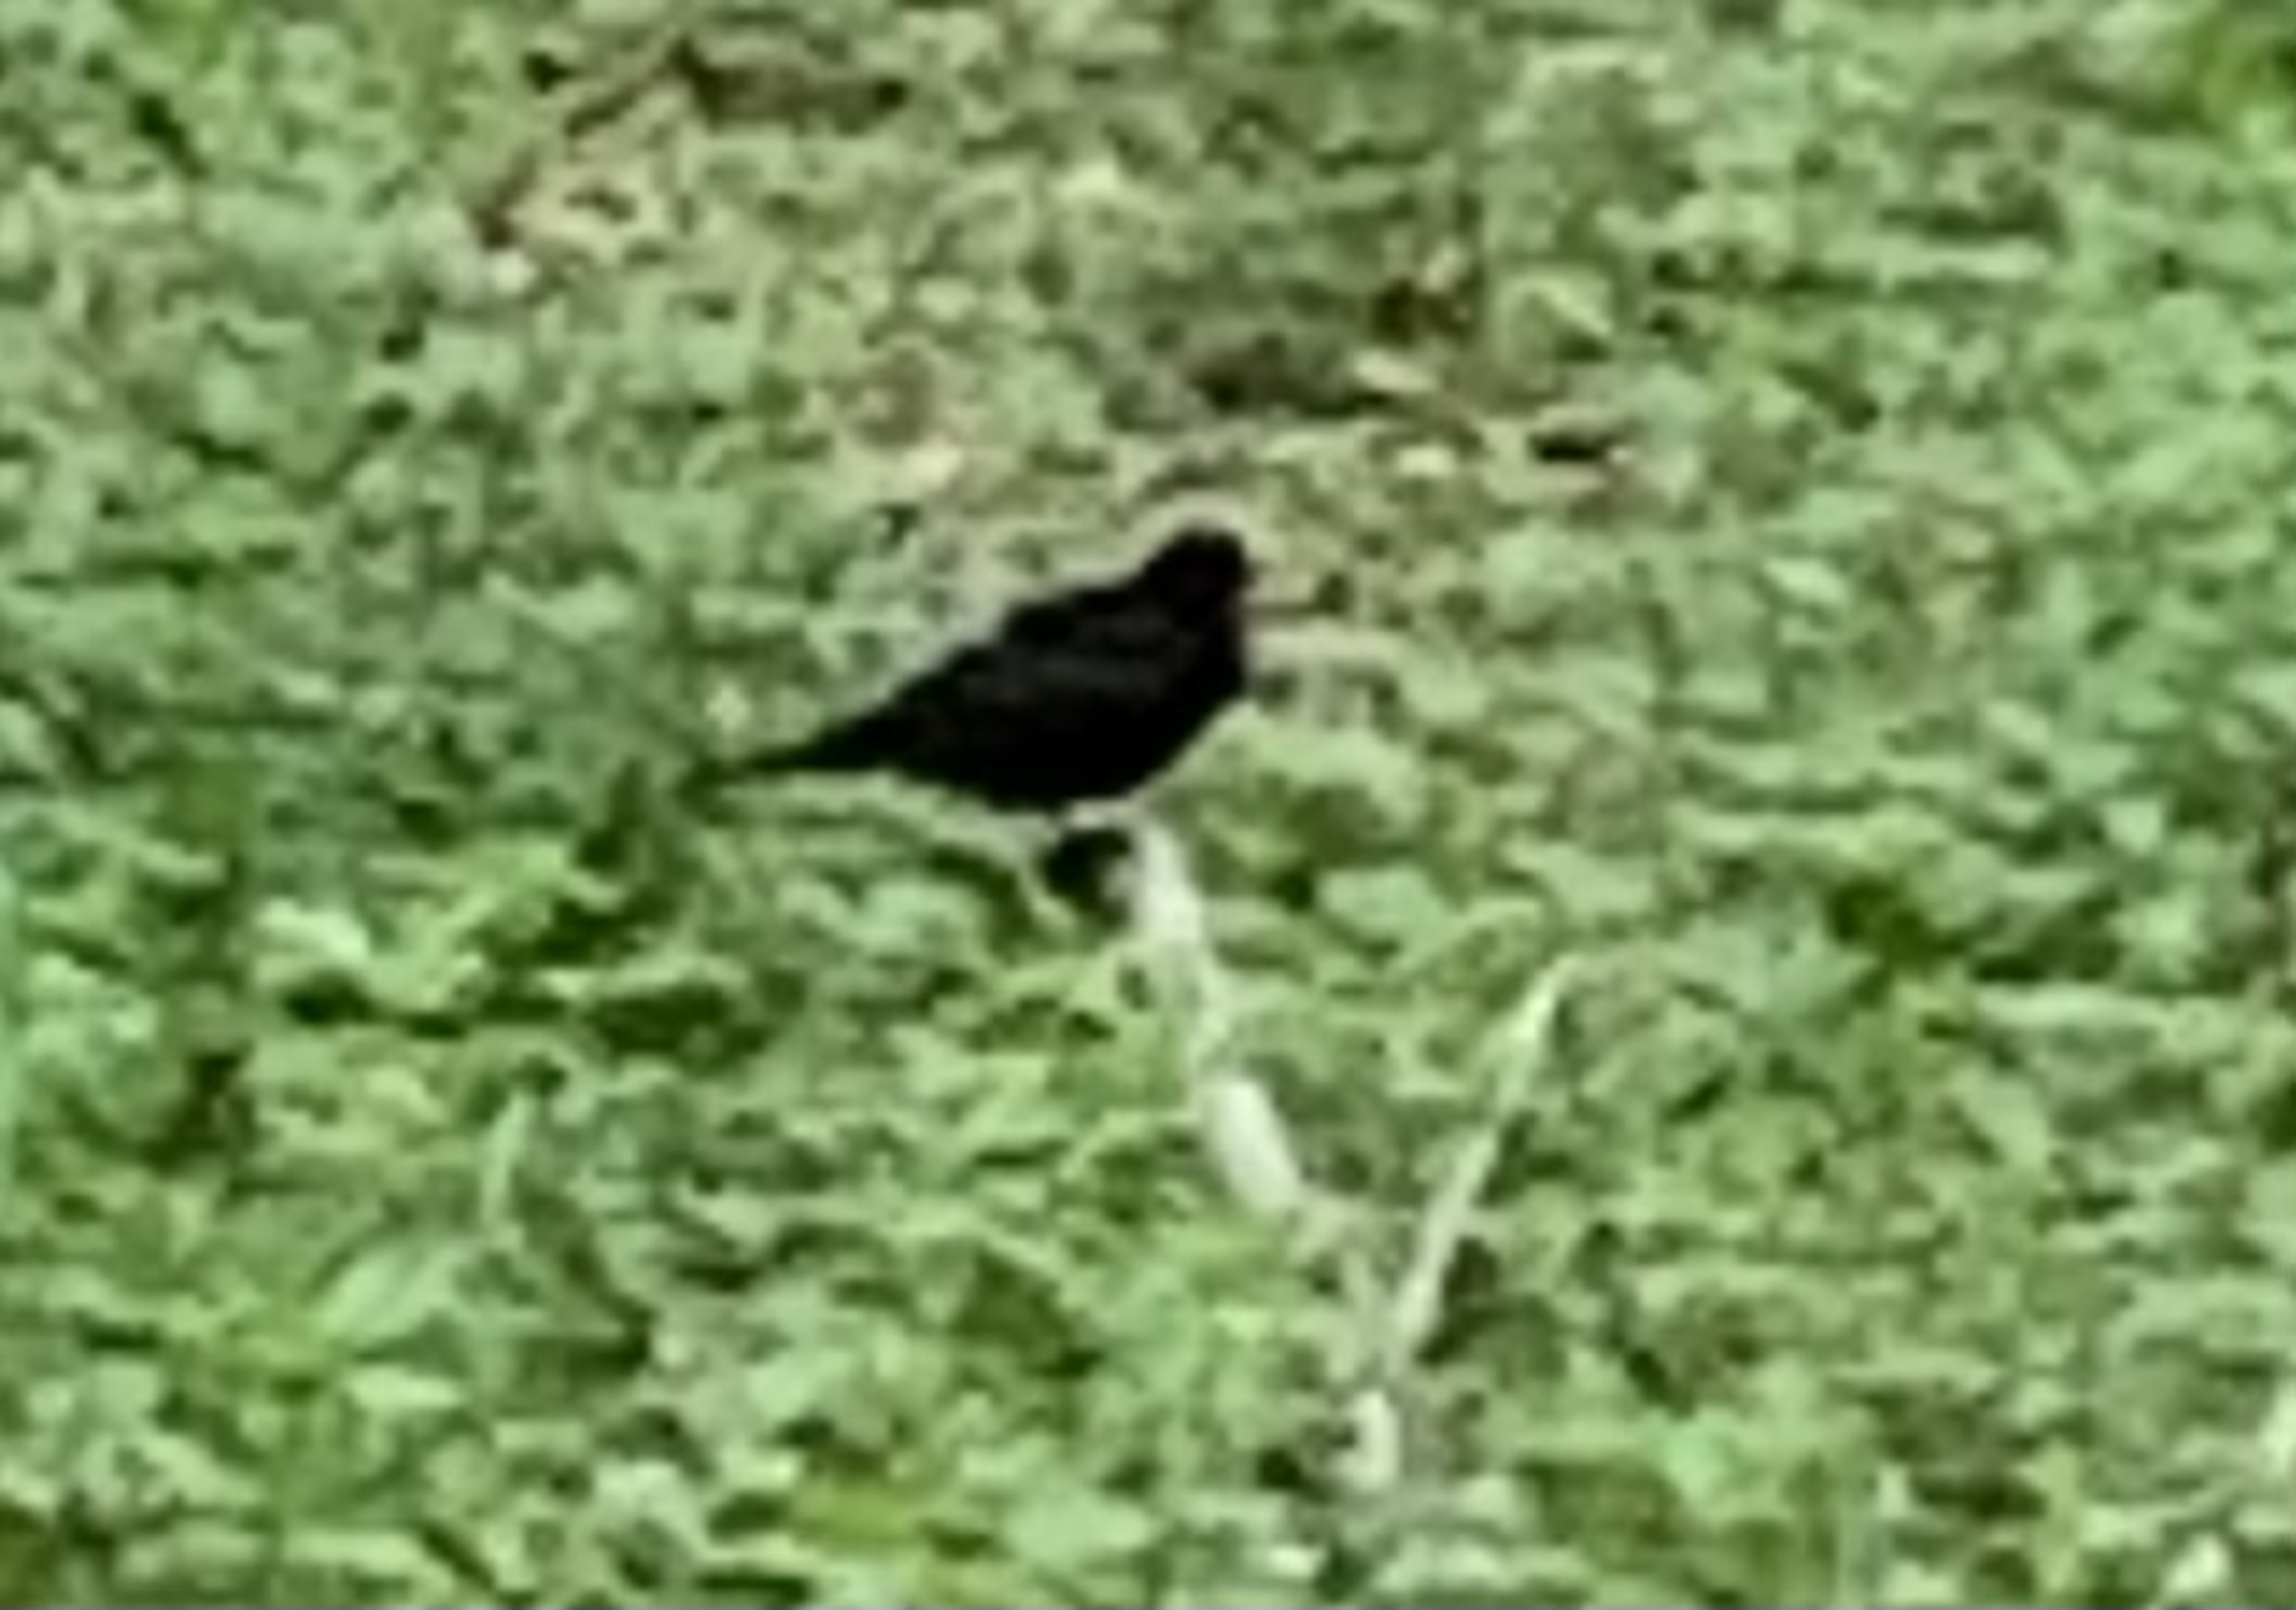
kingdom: Animalia
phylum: Chordata
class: Aves
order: Passeriformes
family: Turdidae
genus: Turdus
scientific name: Turdus merula
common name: Solsort
